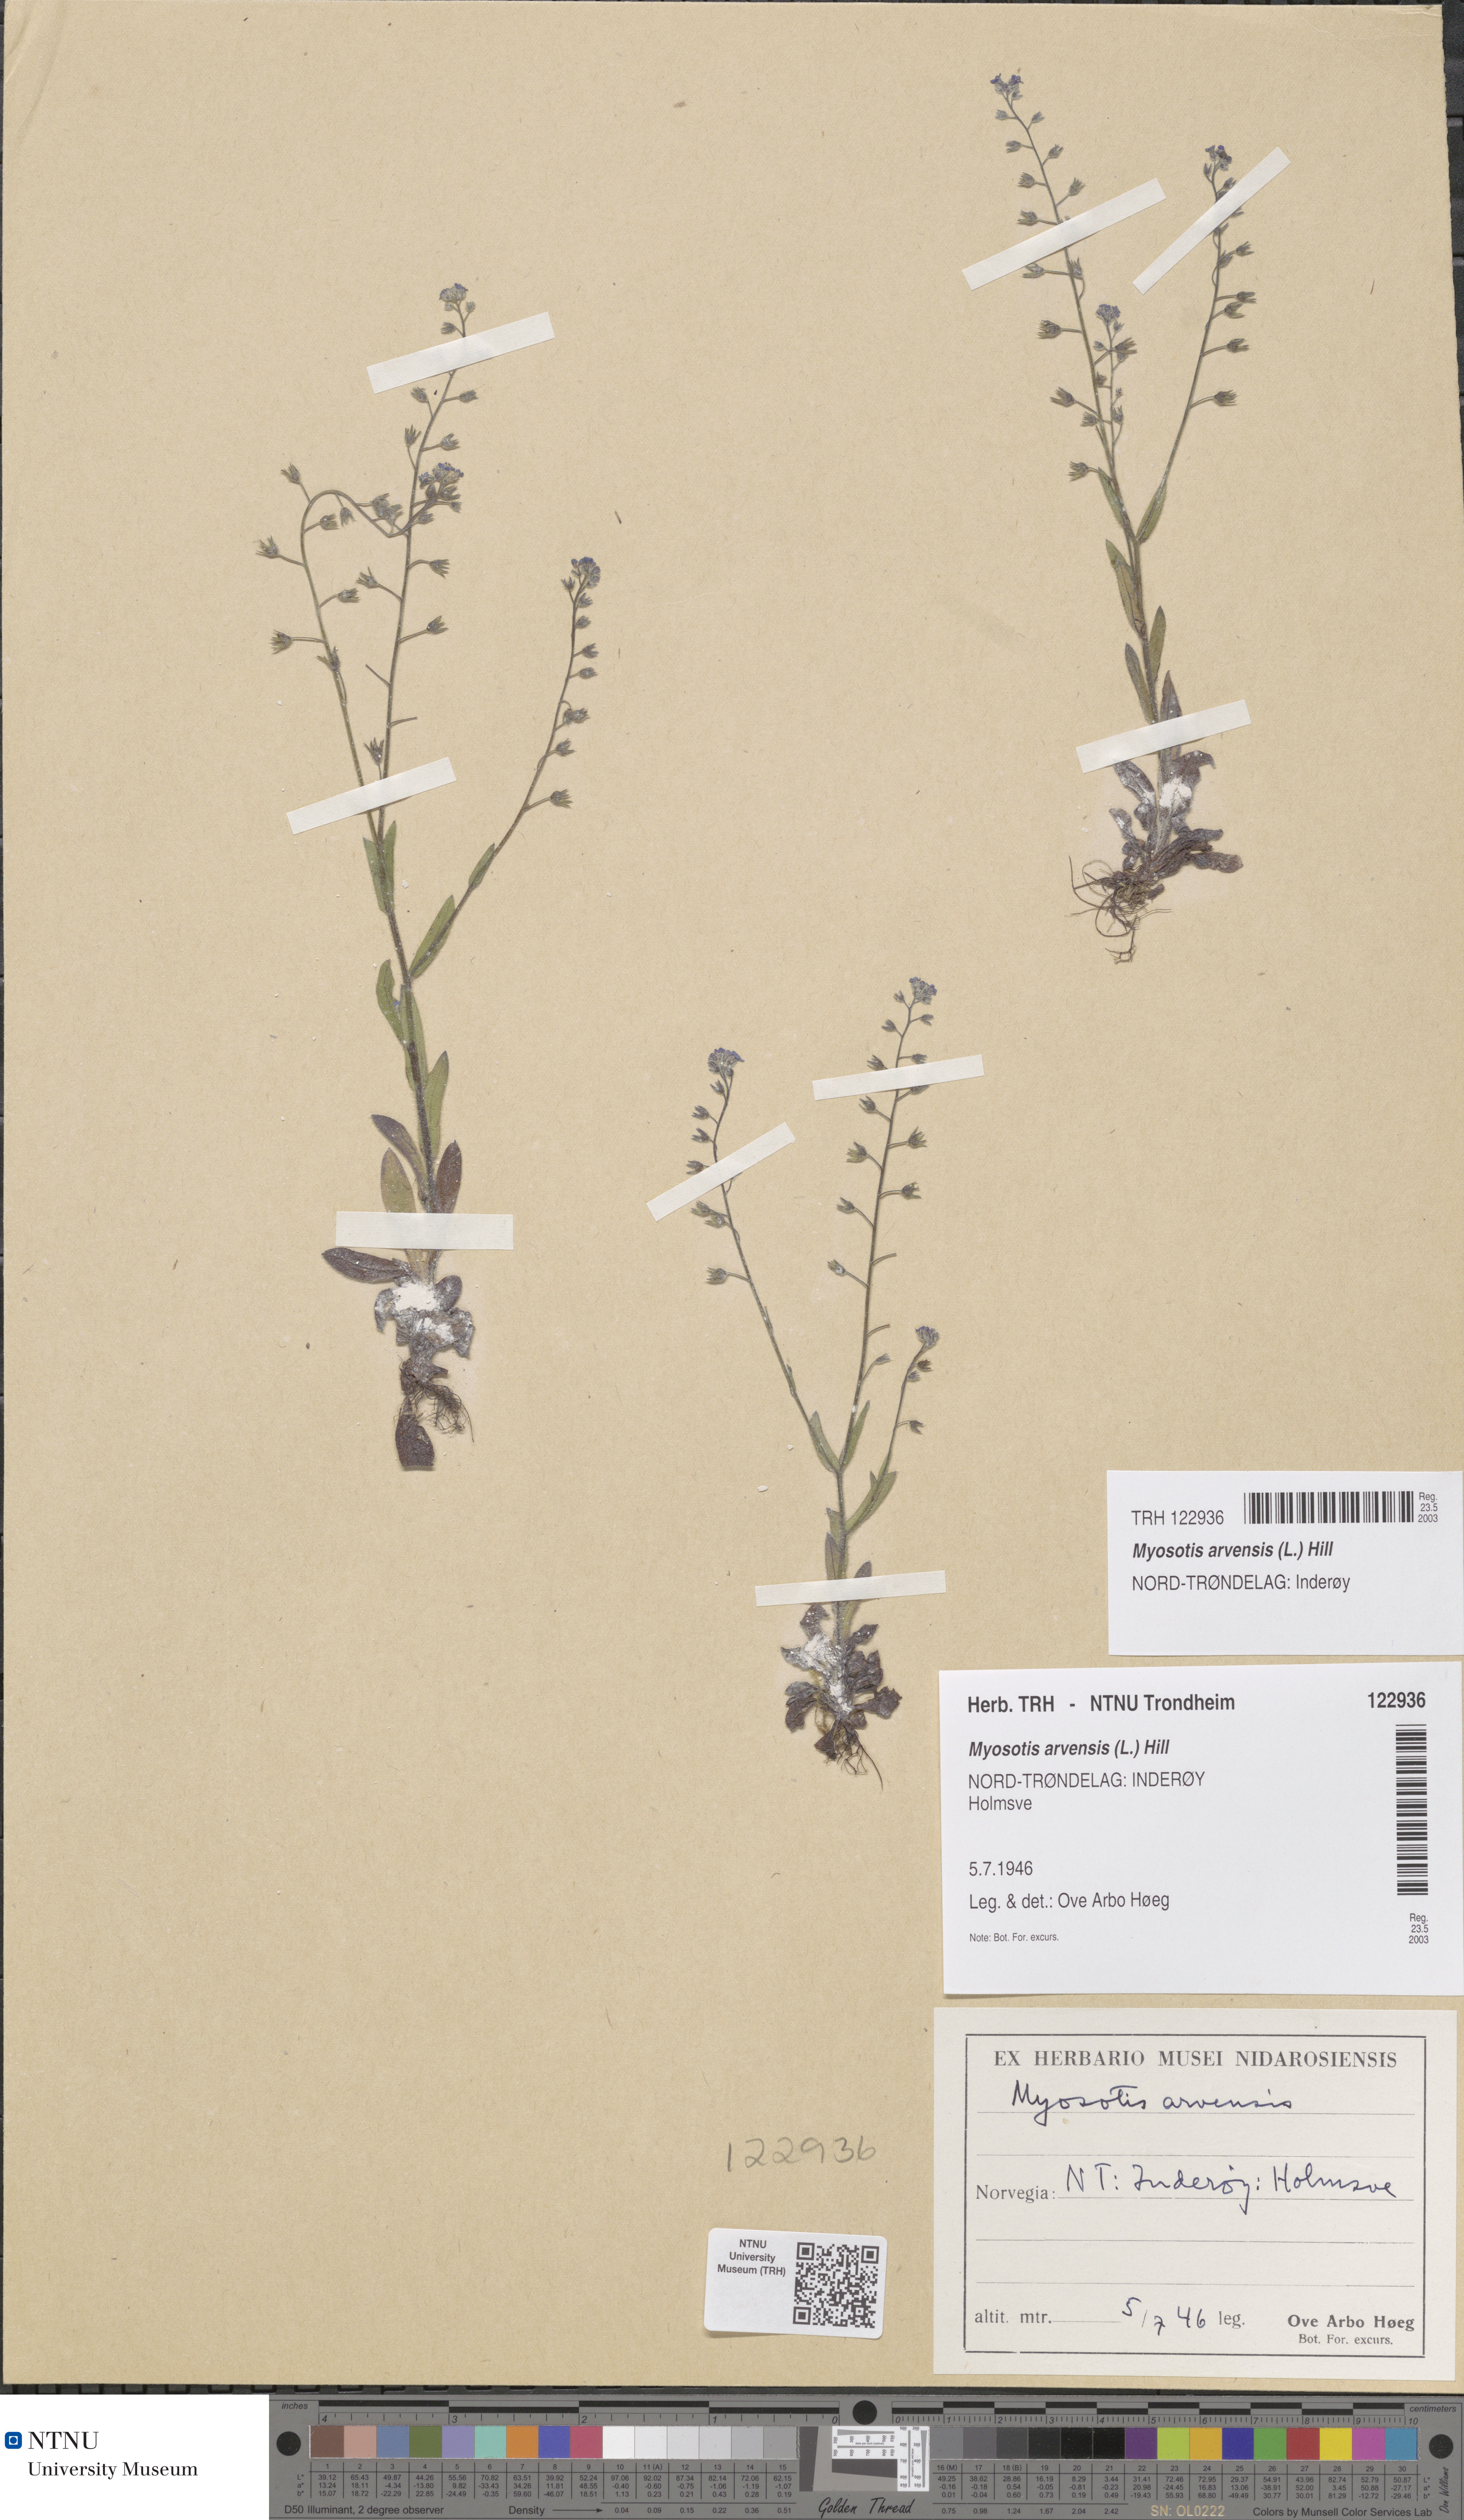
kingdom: Plantae
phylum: Tracheophyta
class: Magnoliopsida
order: Boraginales
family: Boraginaceae
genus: Myosotis
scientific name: Myosotis arvensis
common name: Field forget-me-not
